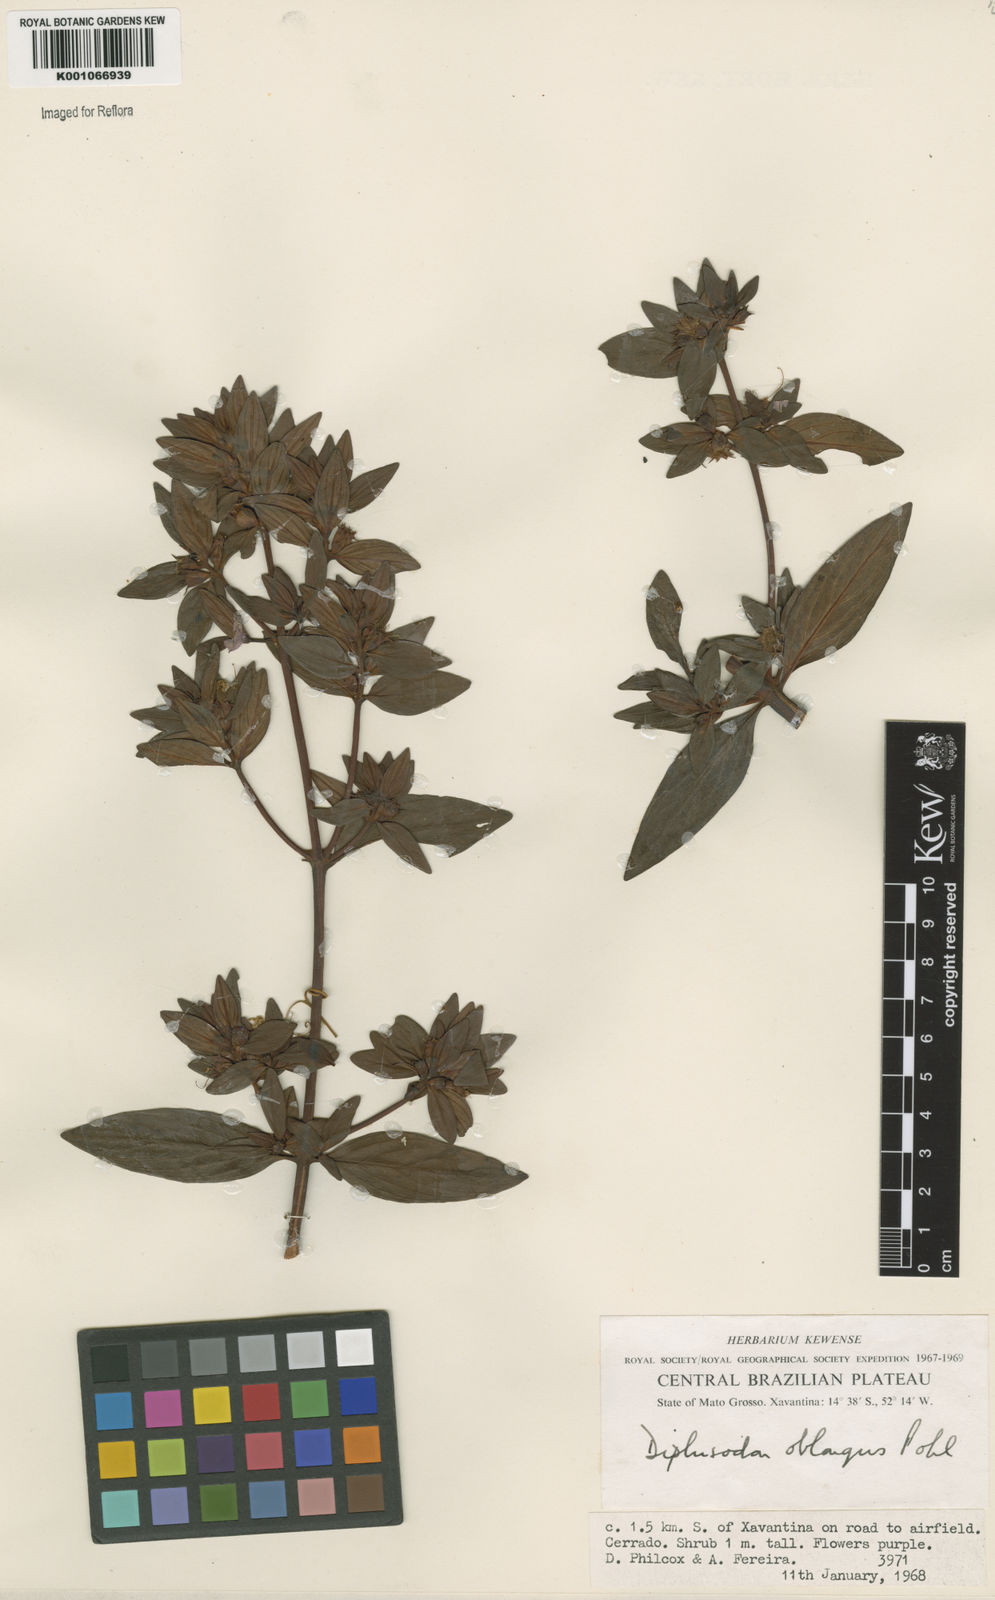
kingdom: Plantae
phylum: Tracheophyta
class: Magnoliopsida
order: Myrtales
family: Lythraceae
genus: Diplusodon
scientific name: Diplusodon oblongus
